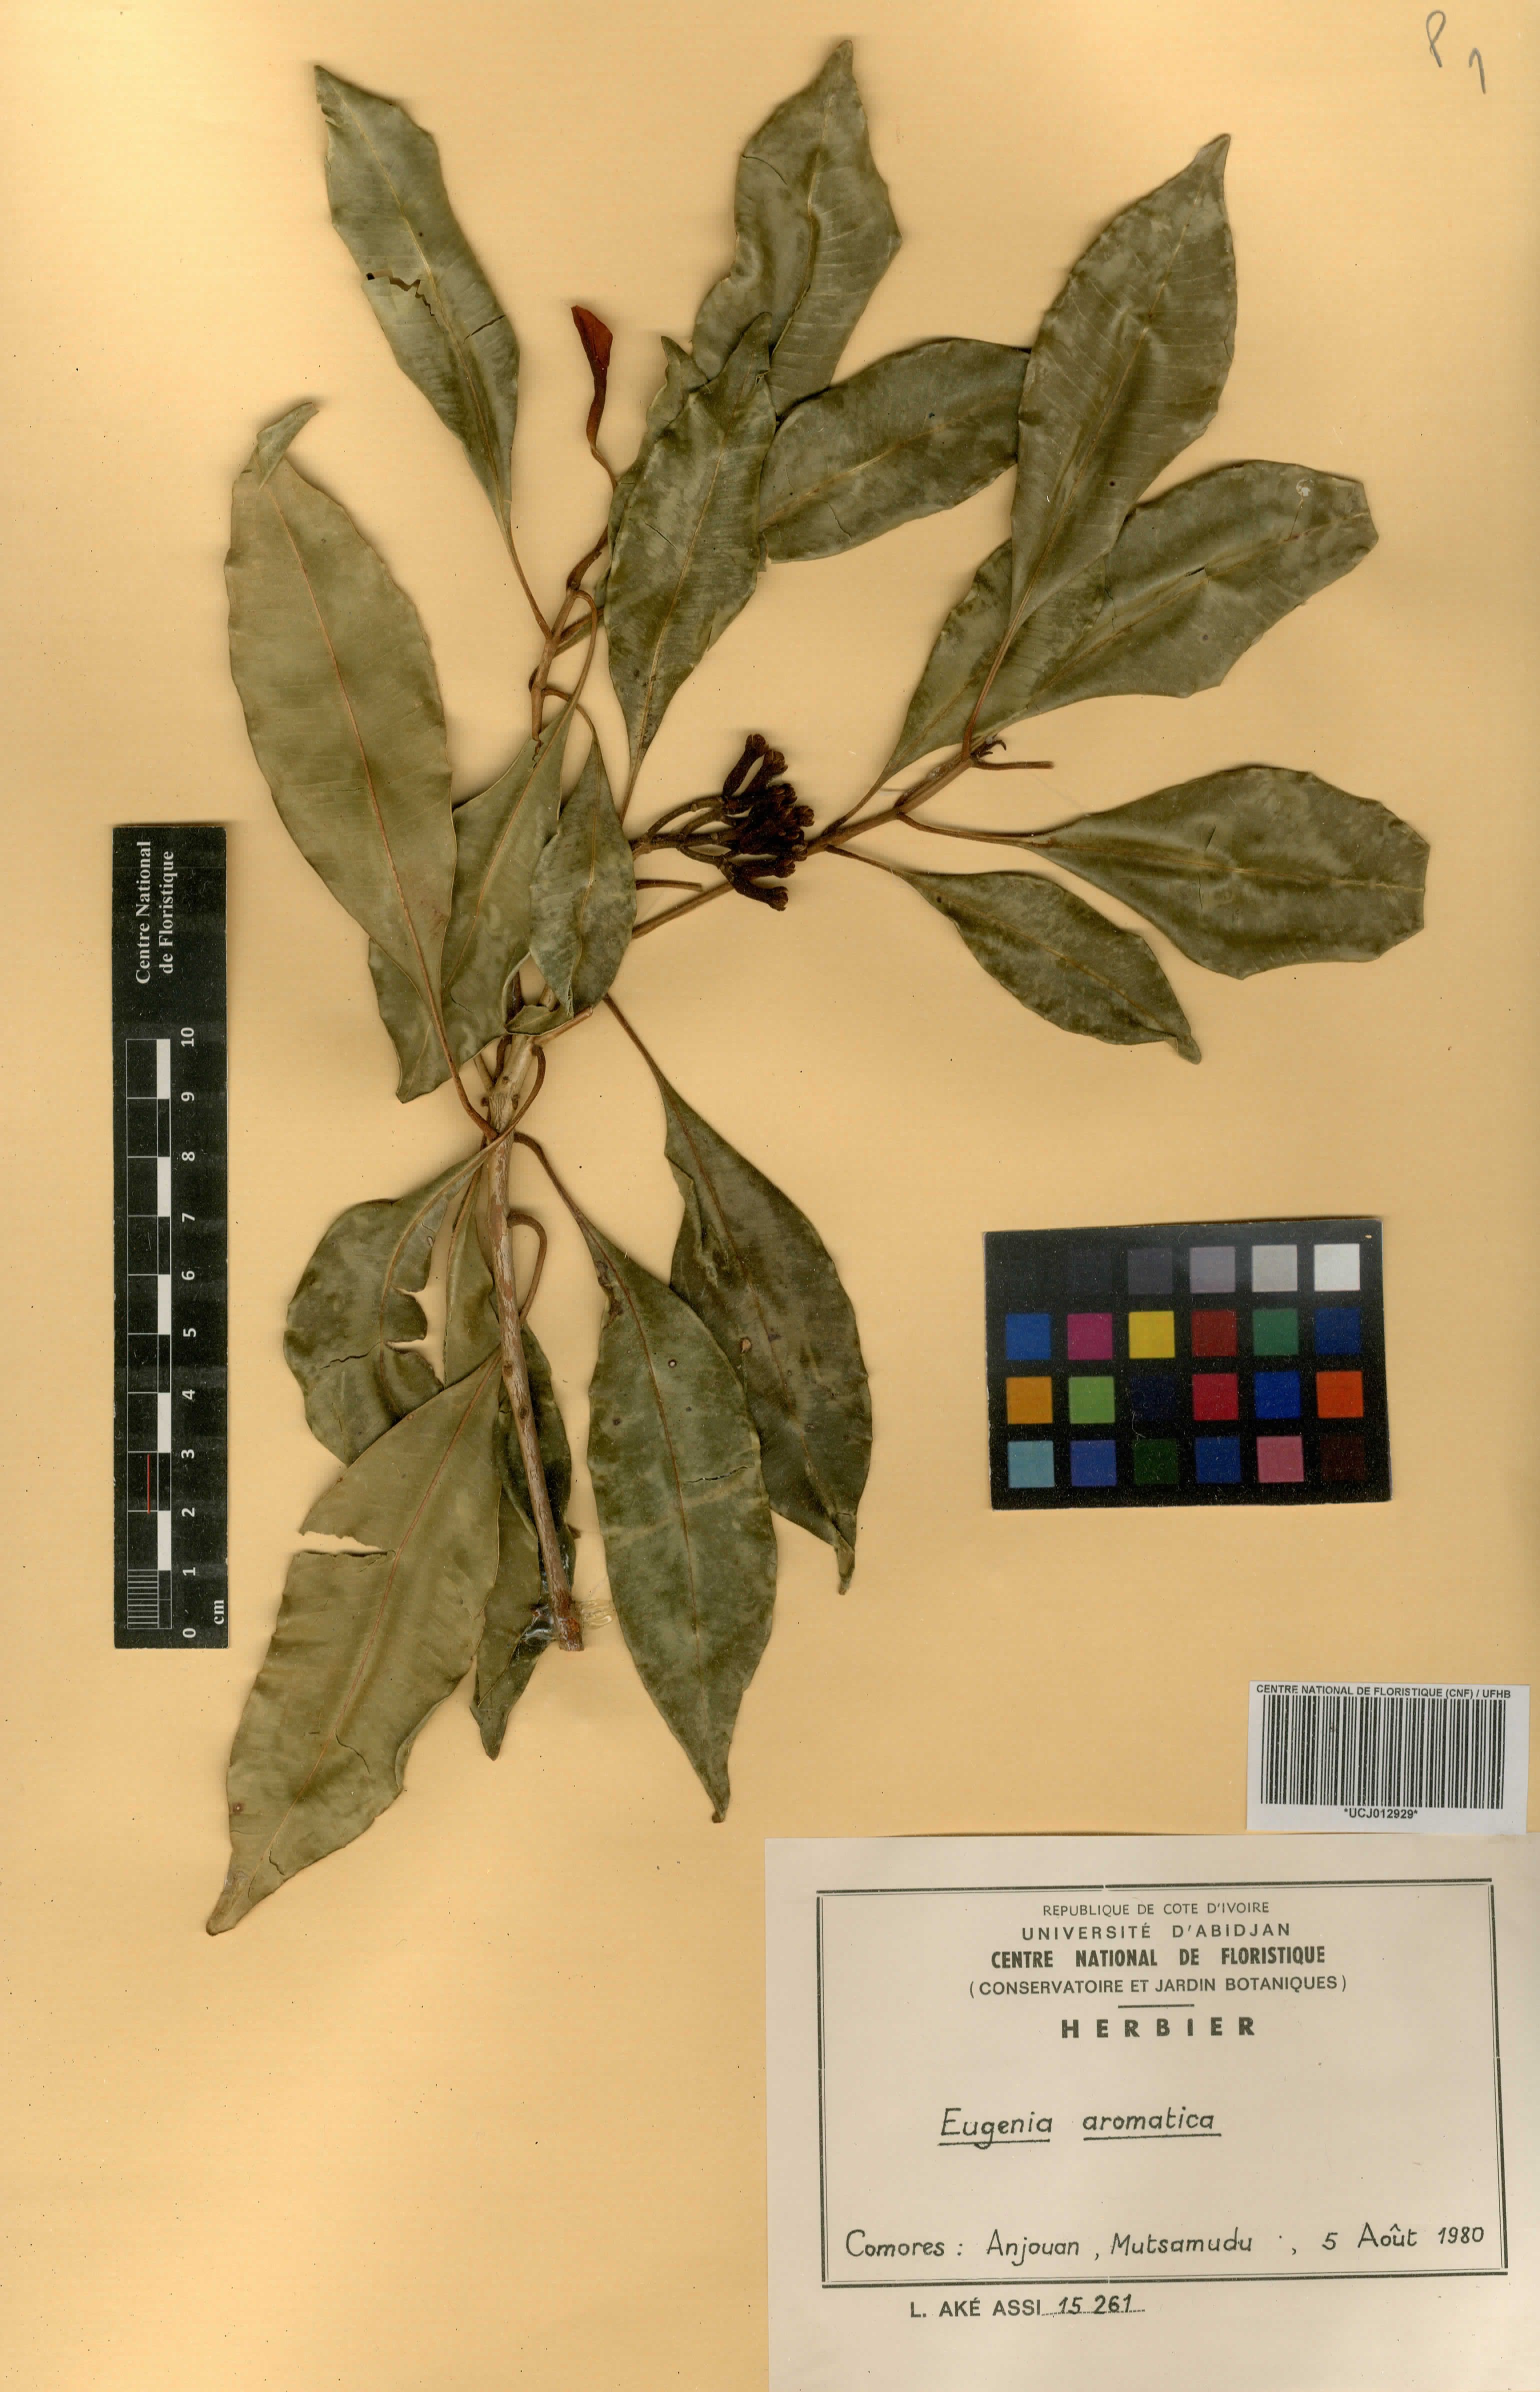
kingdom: Plantae
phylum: Tracheophyta
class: Magnoliopsida
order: Myrtales
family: Myrtaceae
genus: Eugenia
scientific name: Eugenia
